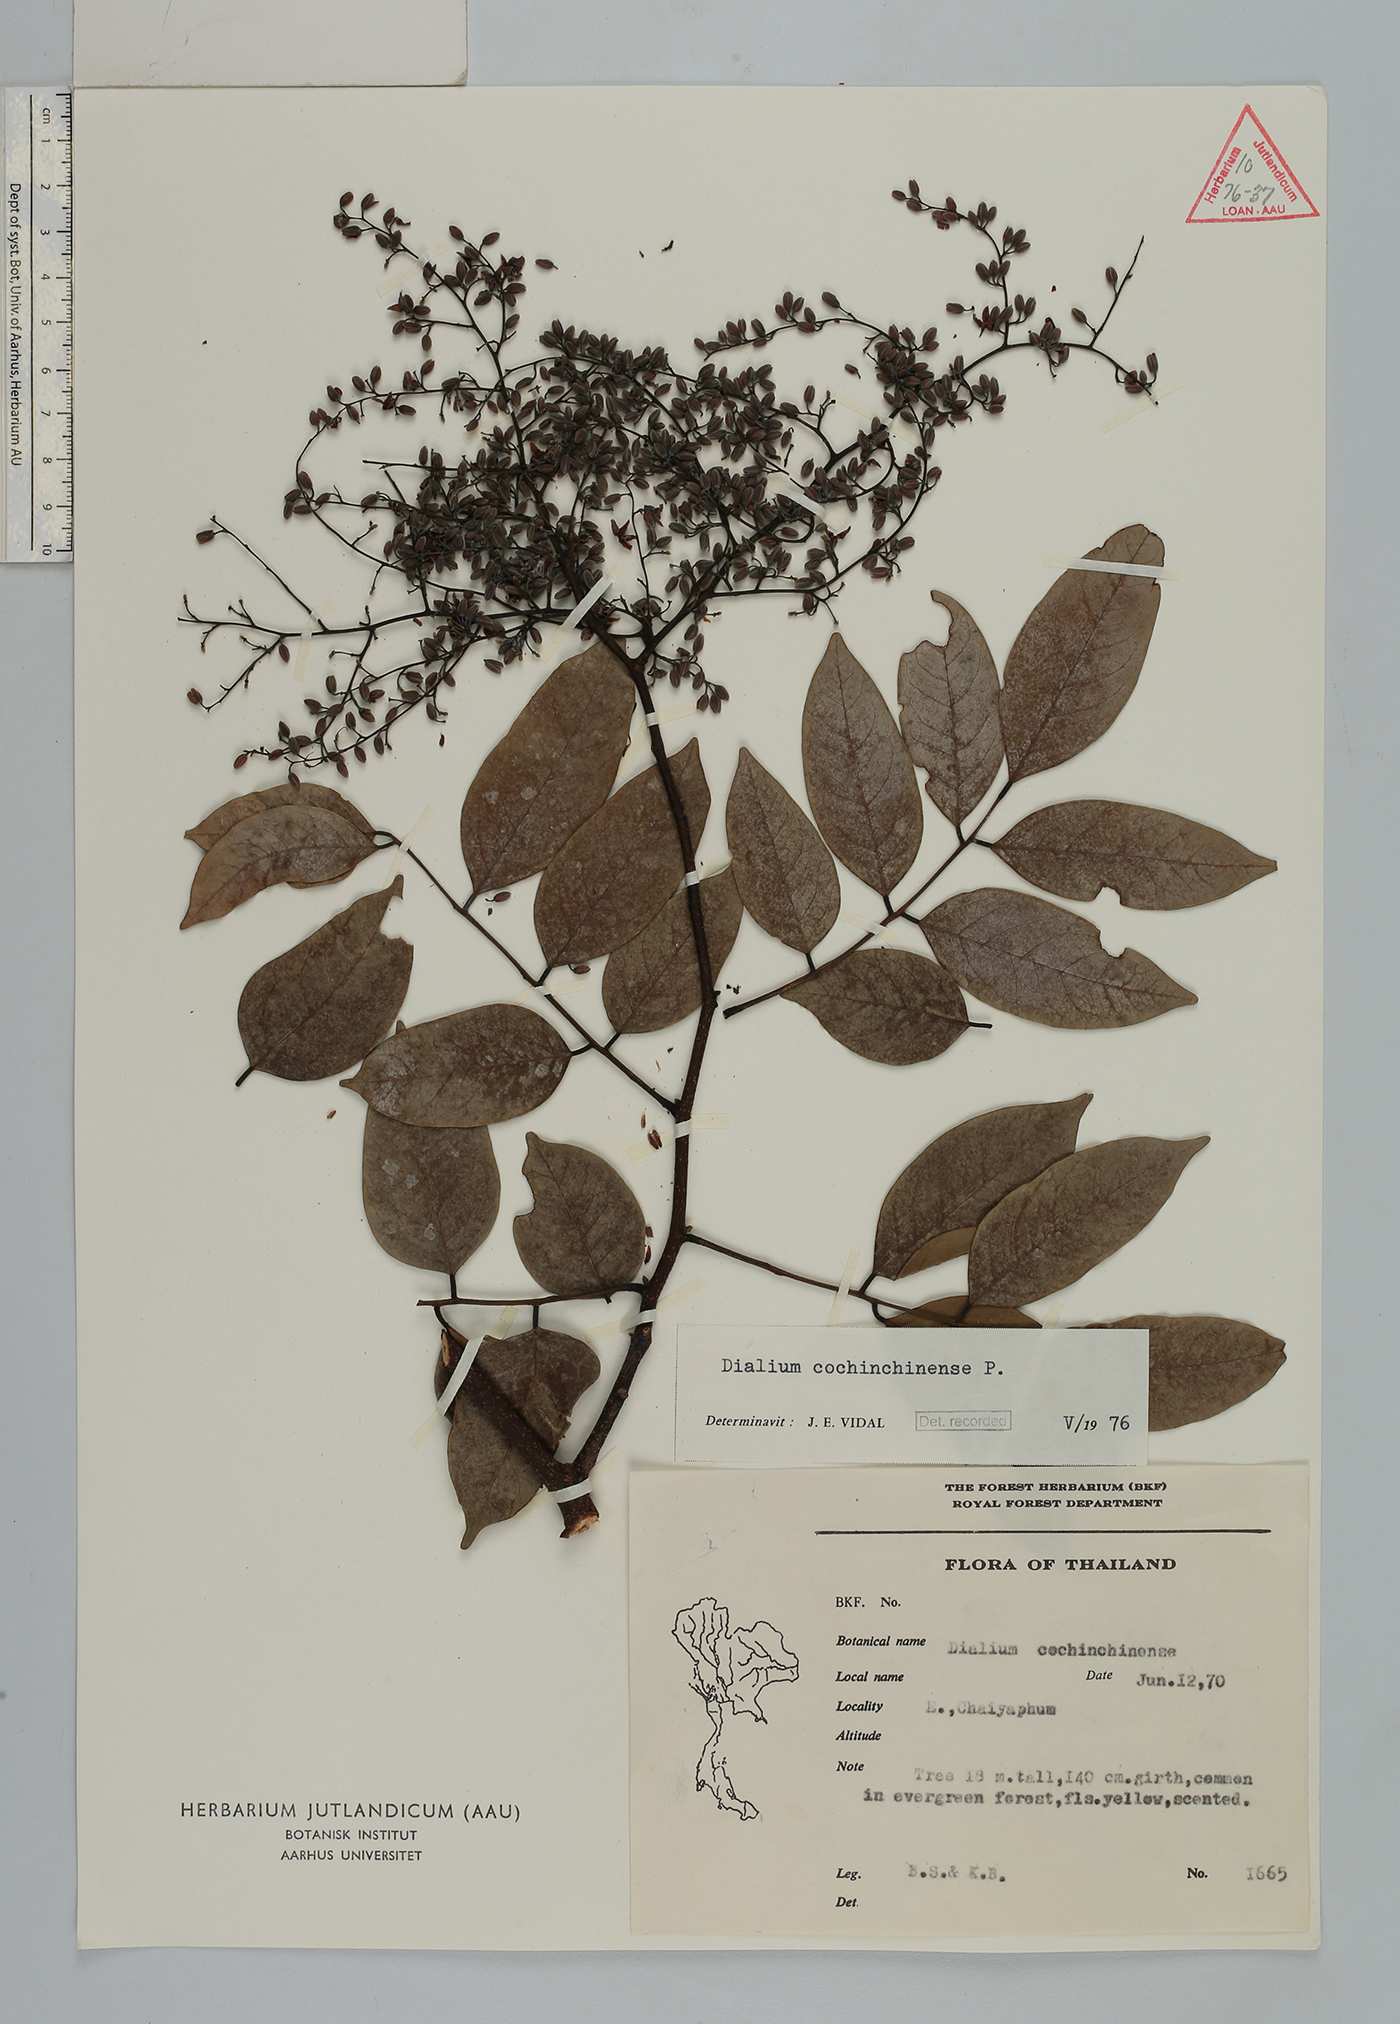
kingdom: Plantae
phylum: Tracheophyta
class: Magnoliopsida
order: Fabales
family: Fabaceae
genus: Dialium
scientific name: Dialium cochinchinense
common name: Velvet tamarind
